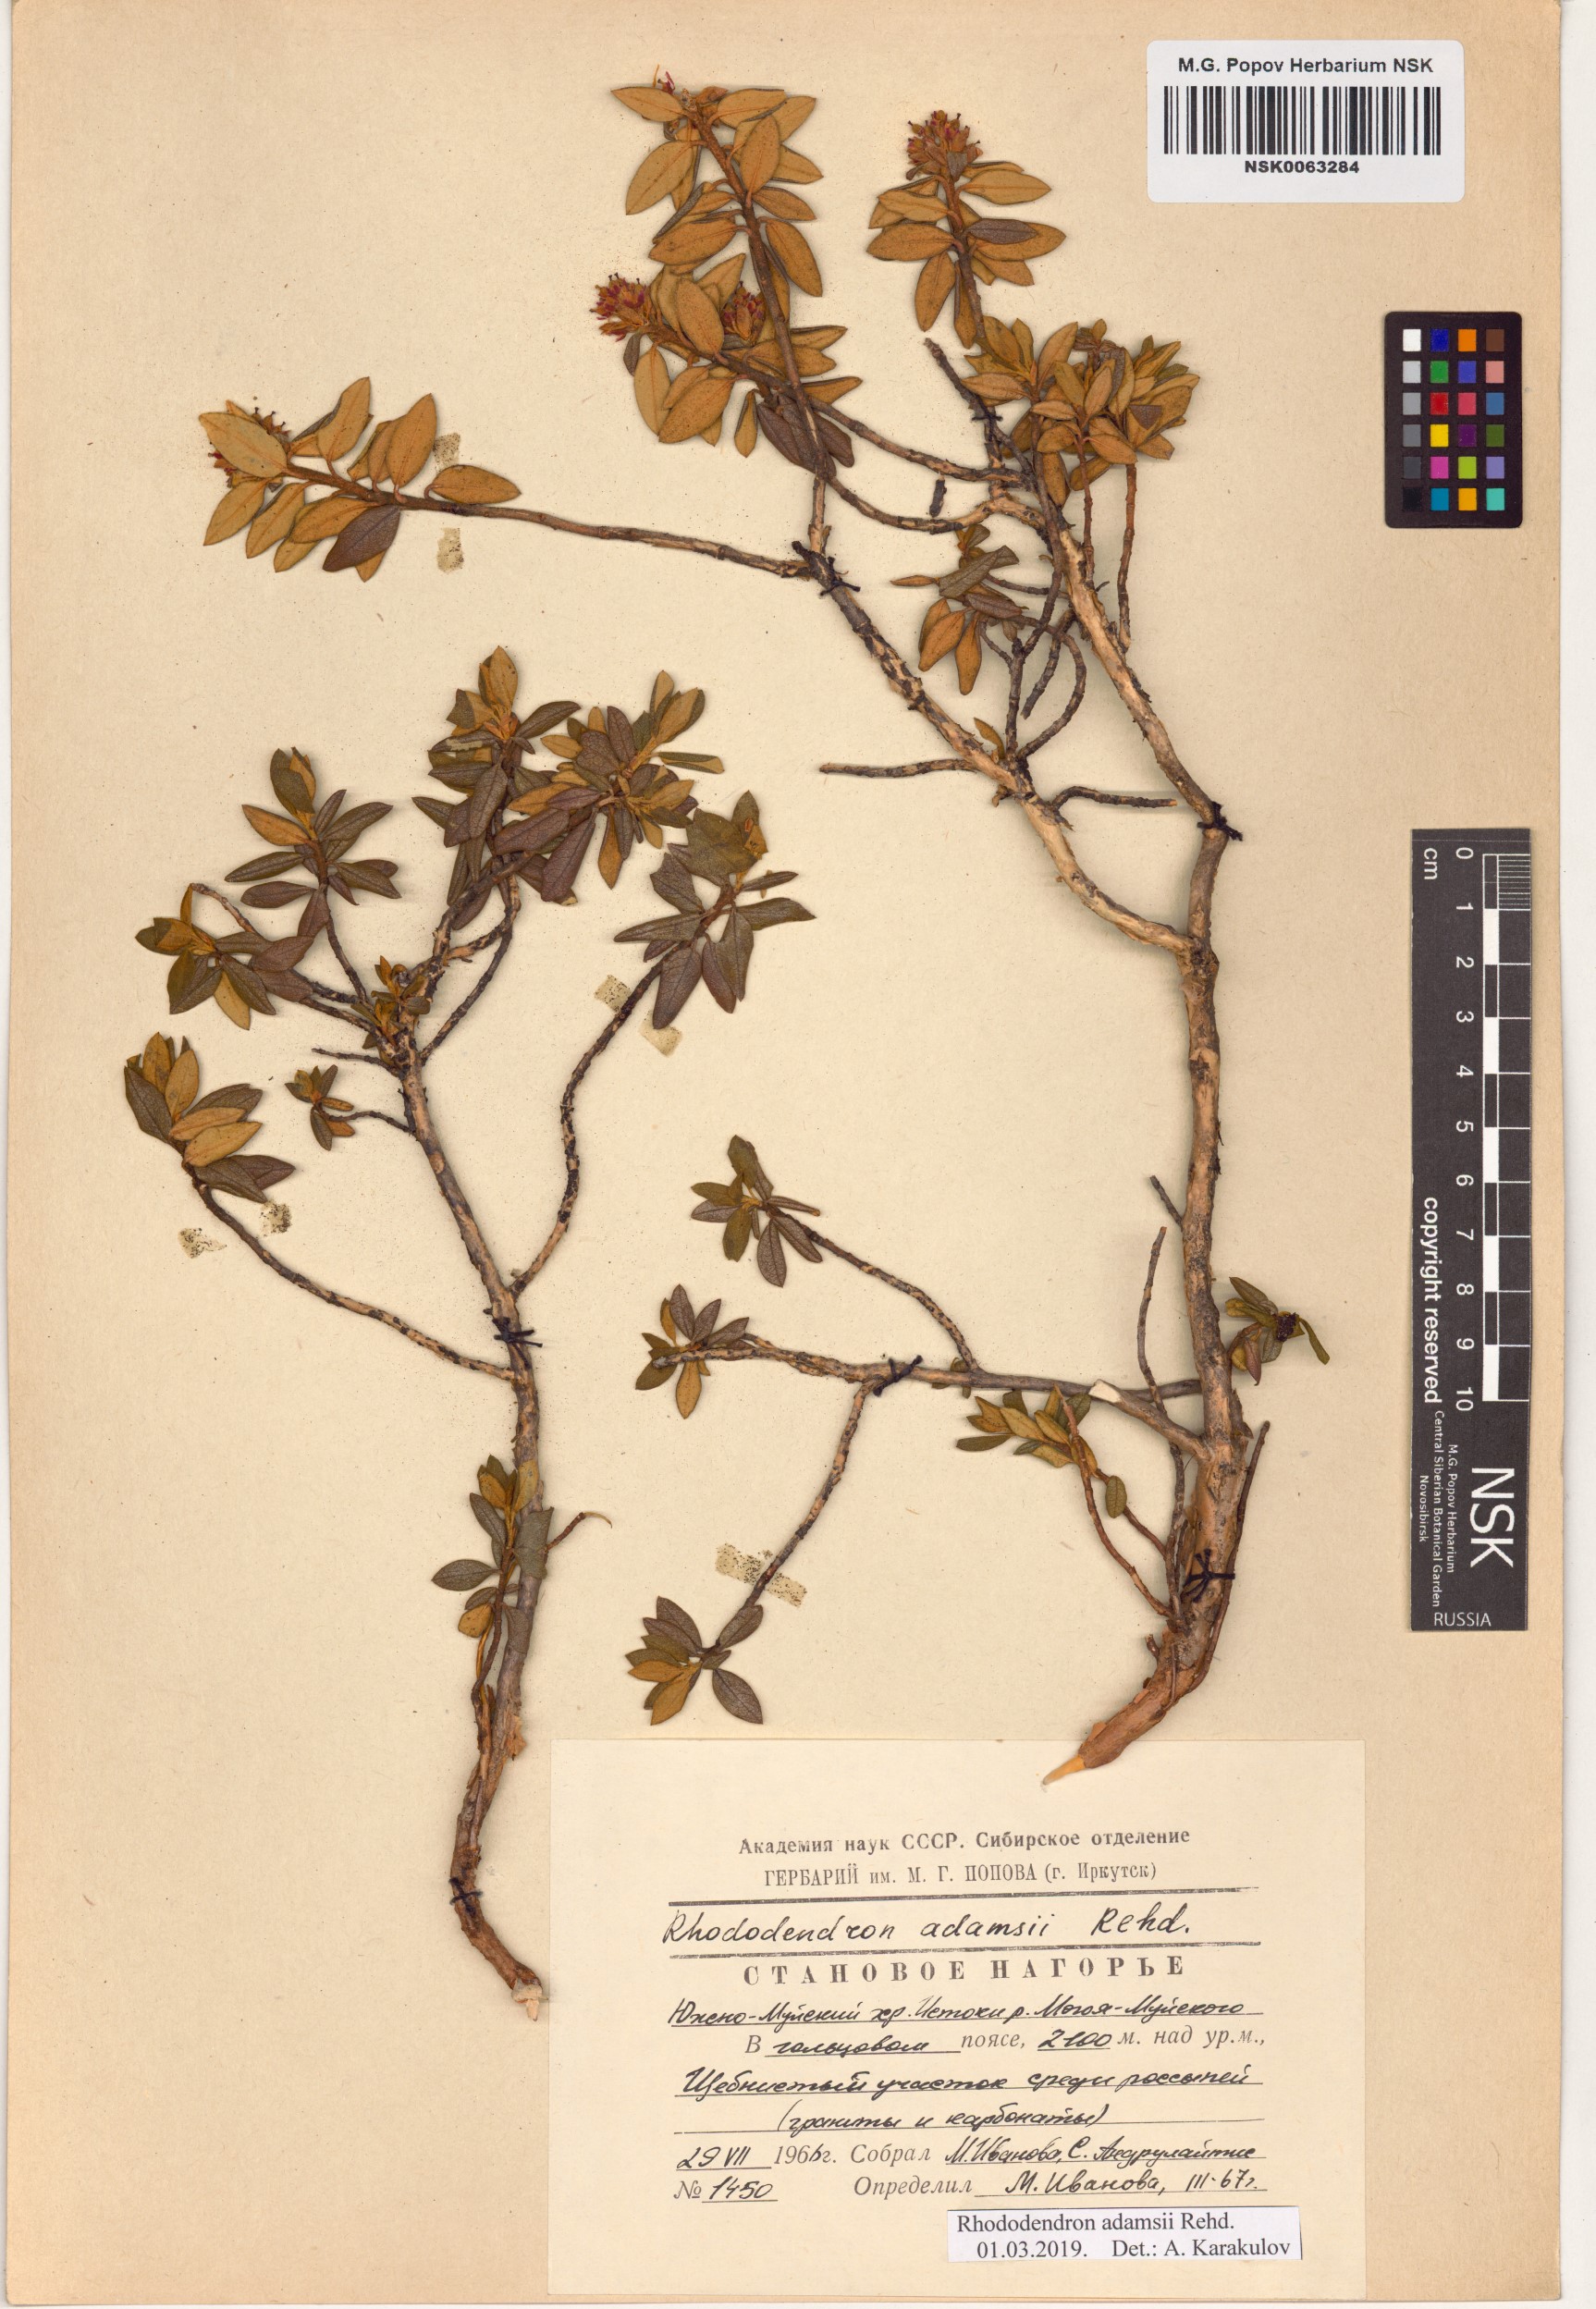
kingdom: Plantae
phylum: Tracheophyta
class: Magnoliopsida
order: Ericales
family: Ericaceae
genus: Rhododendron
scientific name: Rhododendron adamsii
